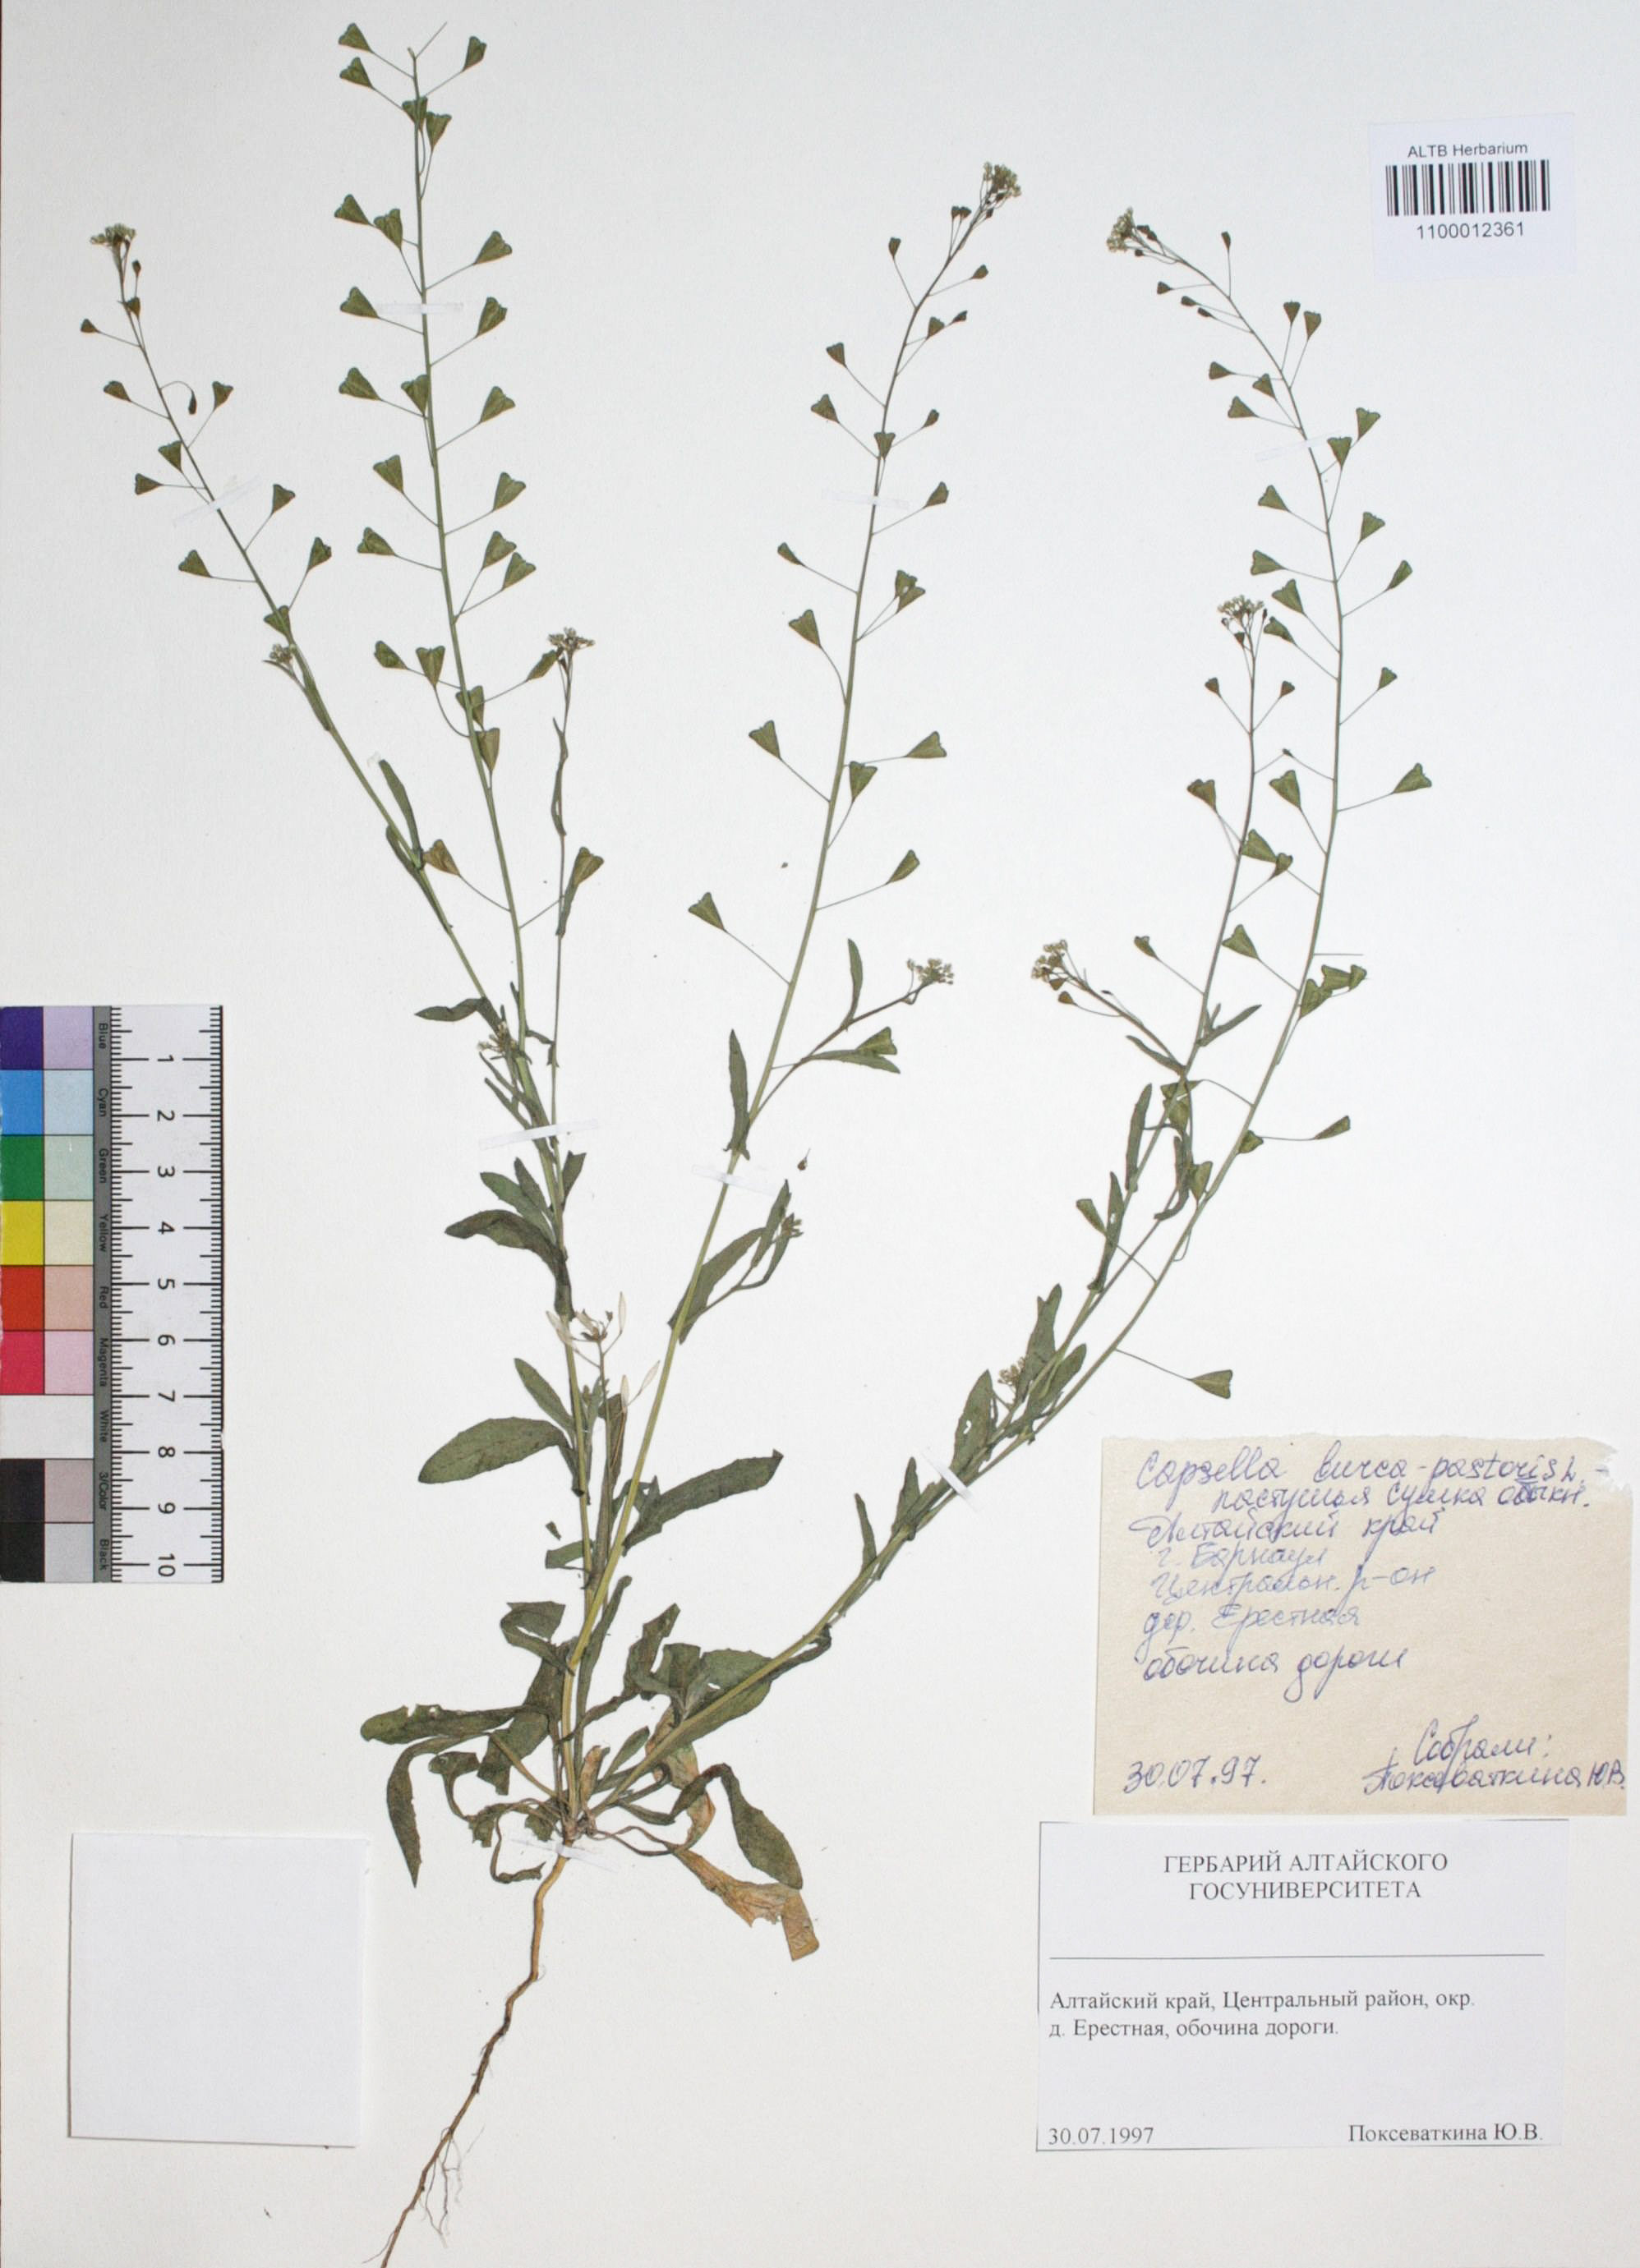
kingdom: Plantae
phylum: Tracheophyta
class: Magnoliopsida
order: Brassicales
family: Brassicaceae
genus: Capsella
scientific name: Capsella bursa-pastoris
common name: Shepherd's purse
